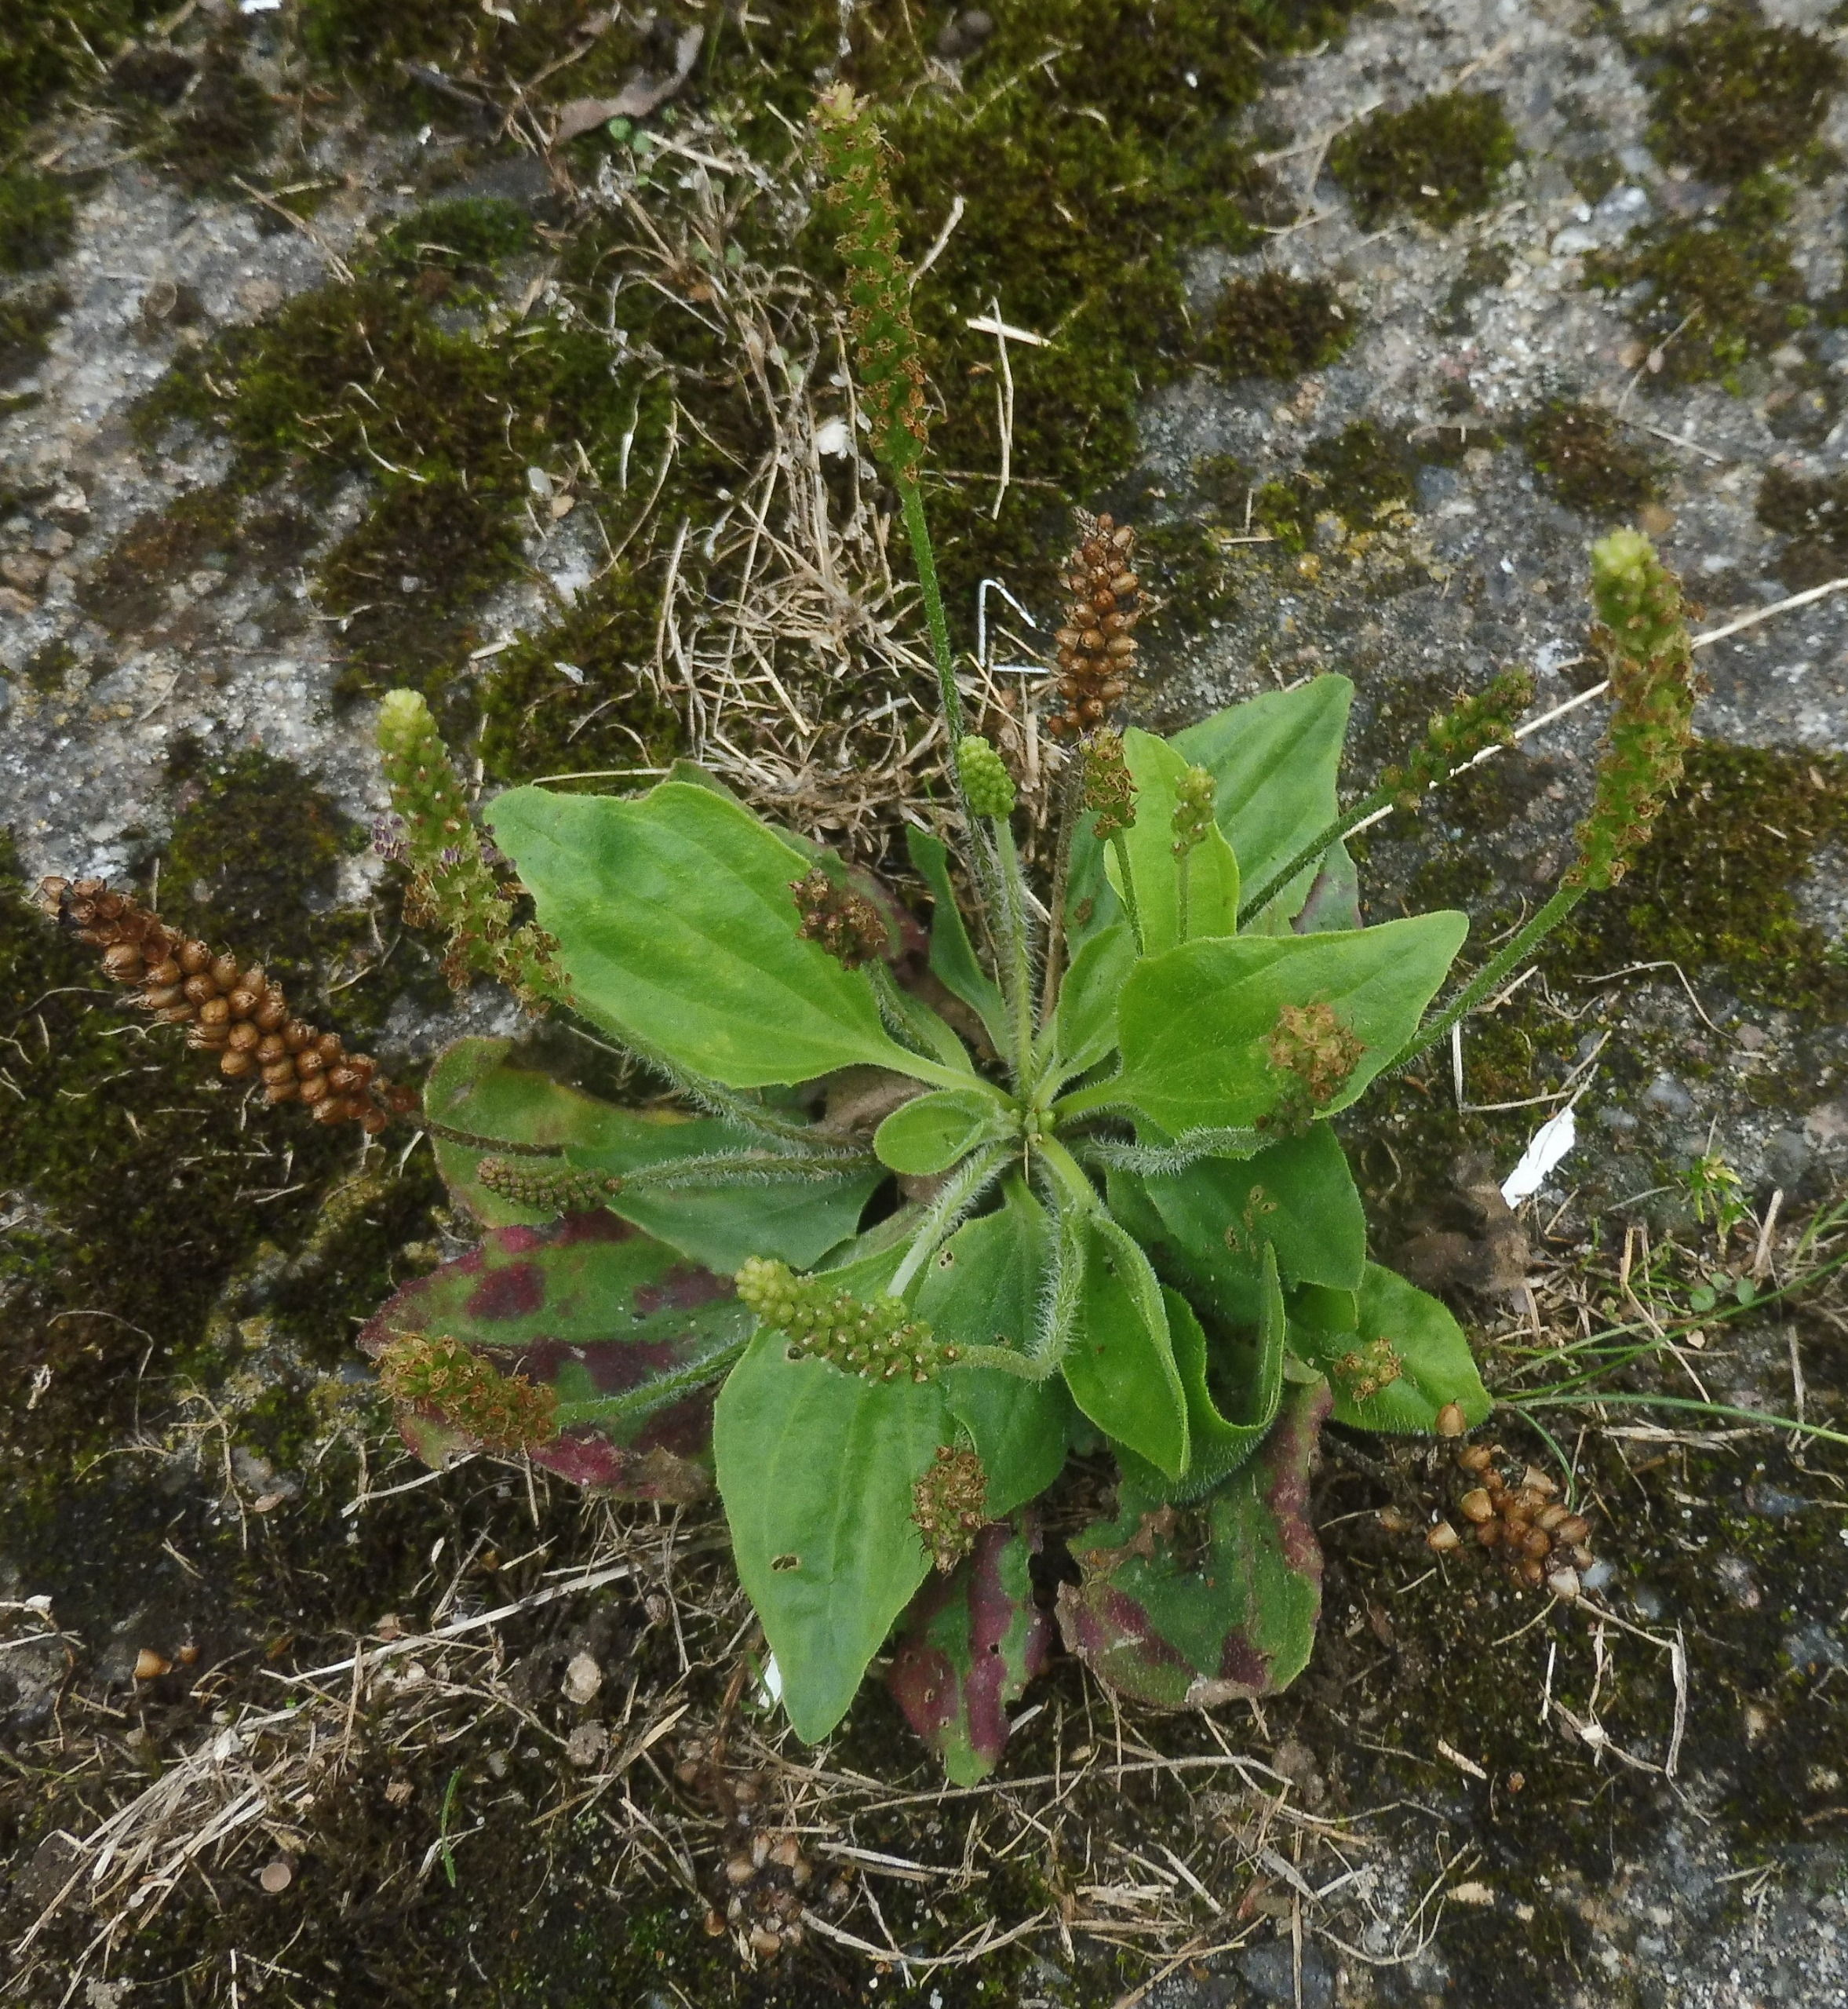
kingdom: Plantae
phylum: Tracheophyta
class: Magnoliopsida
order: Lamiales
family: Plantaginaceae
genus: Plantago
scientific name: Plantago uliginosa
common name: Ager-vejbred
